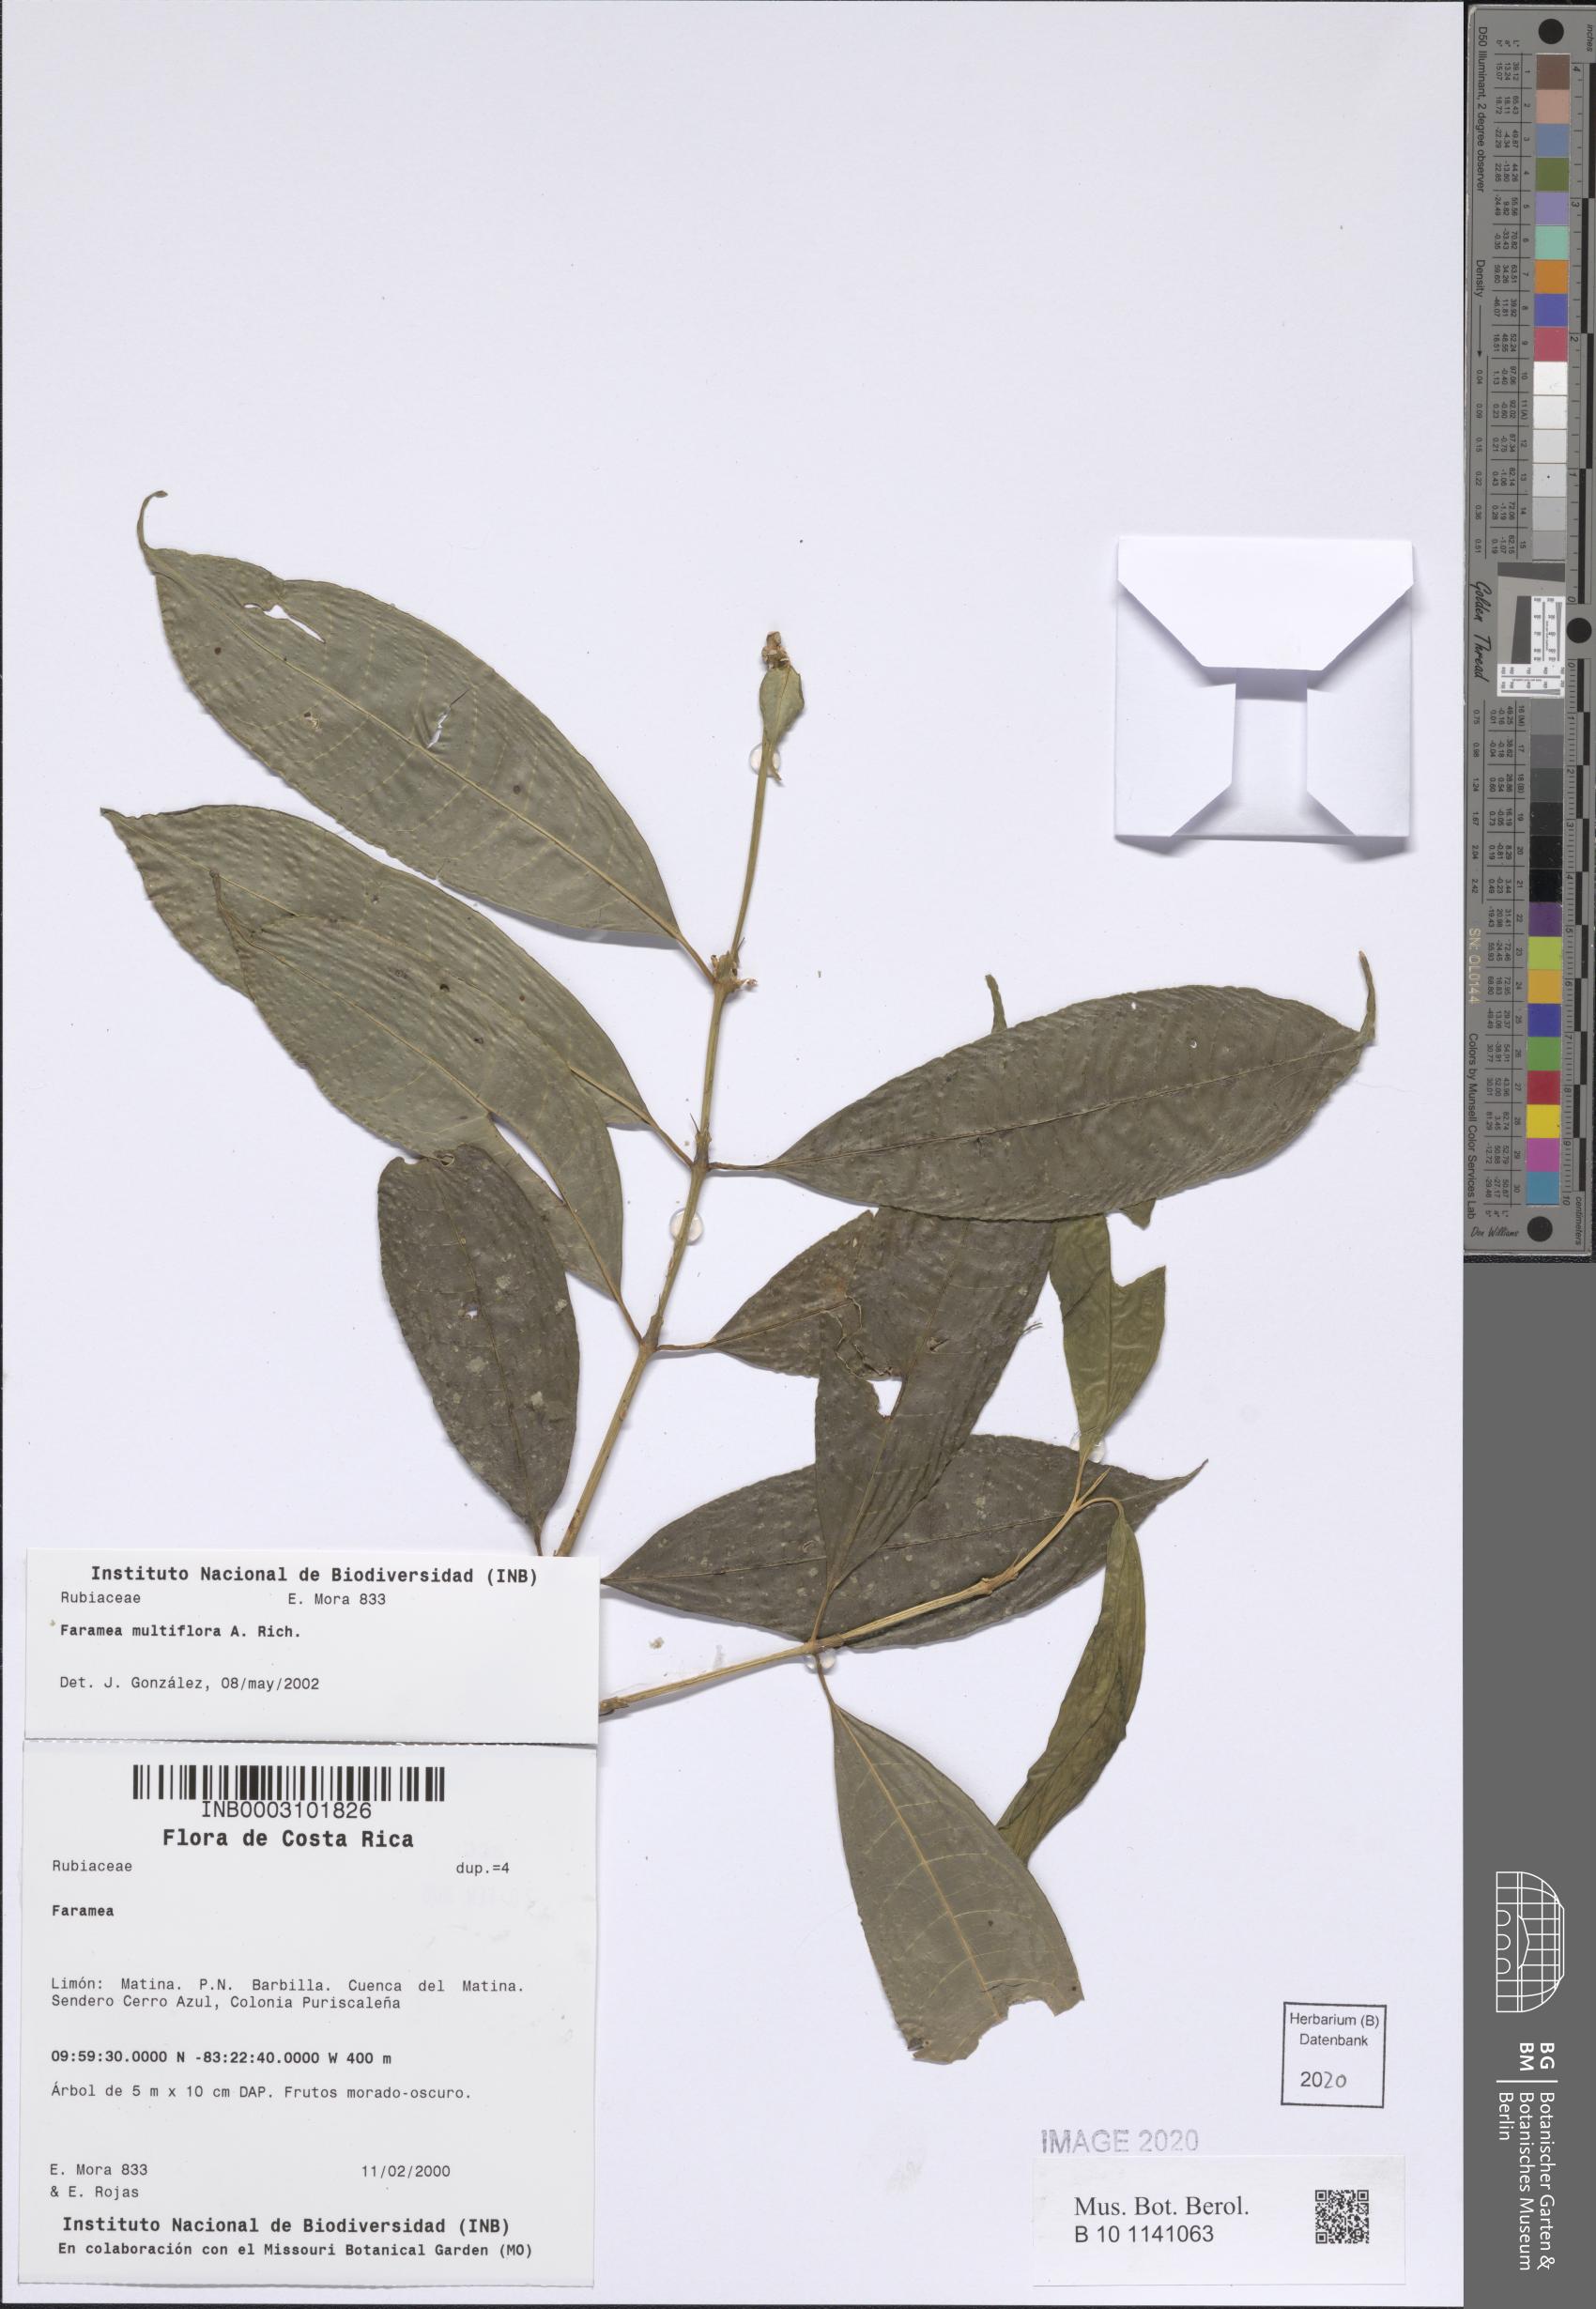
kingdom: Plantae
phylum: Tracheophyta
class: Magnoliopsida
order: Gentianales
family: Rubiaceae
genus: Faramea
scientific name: Faramea multiflora
